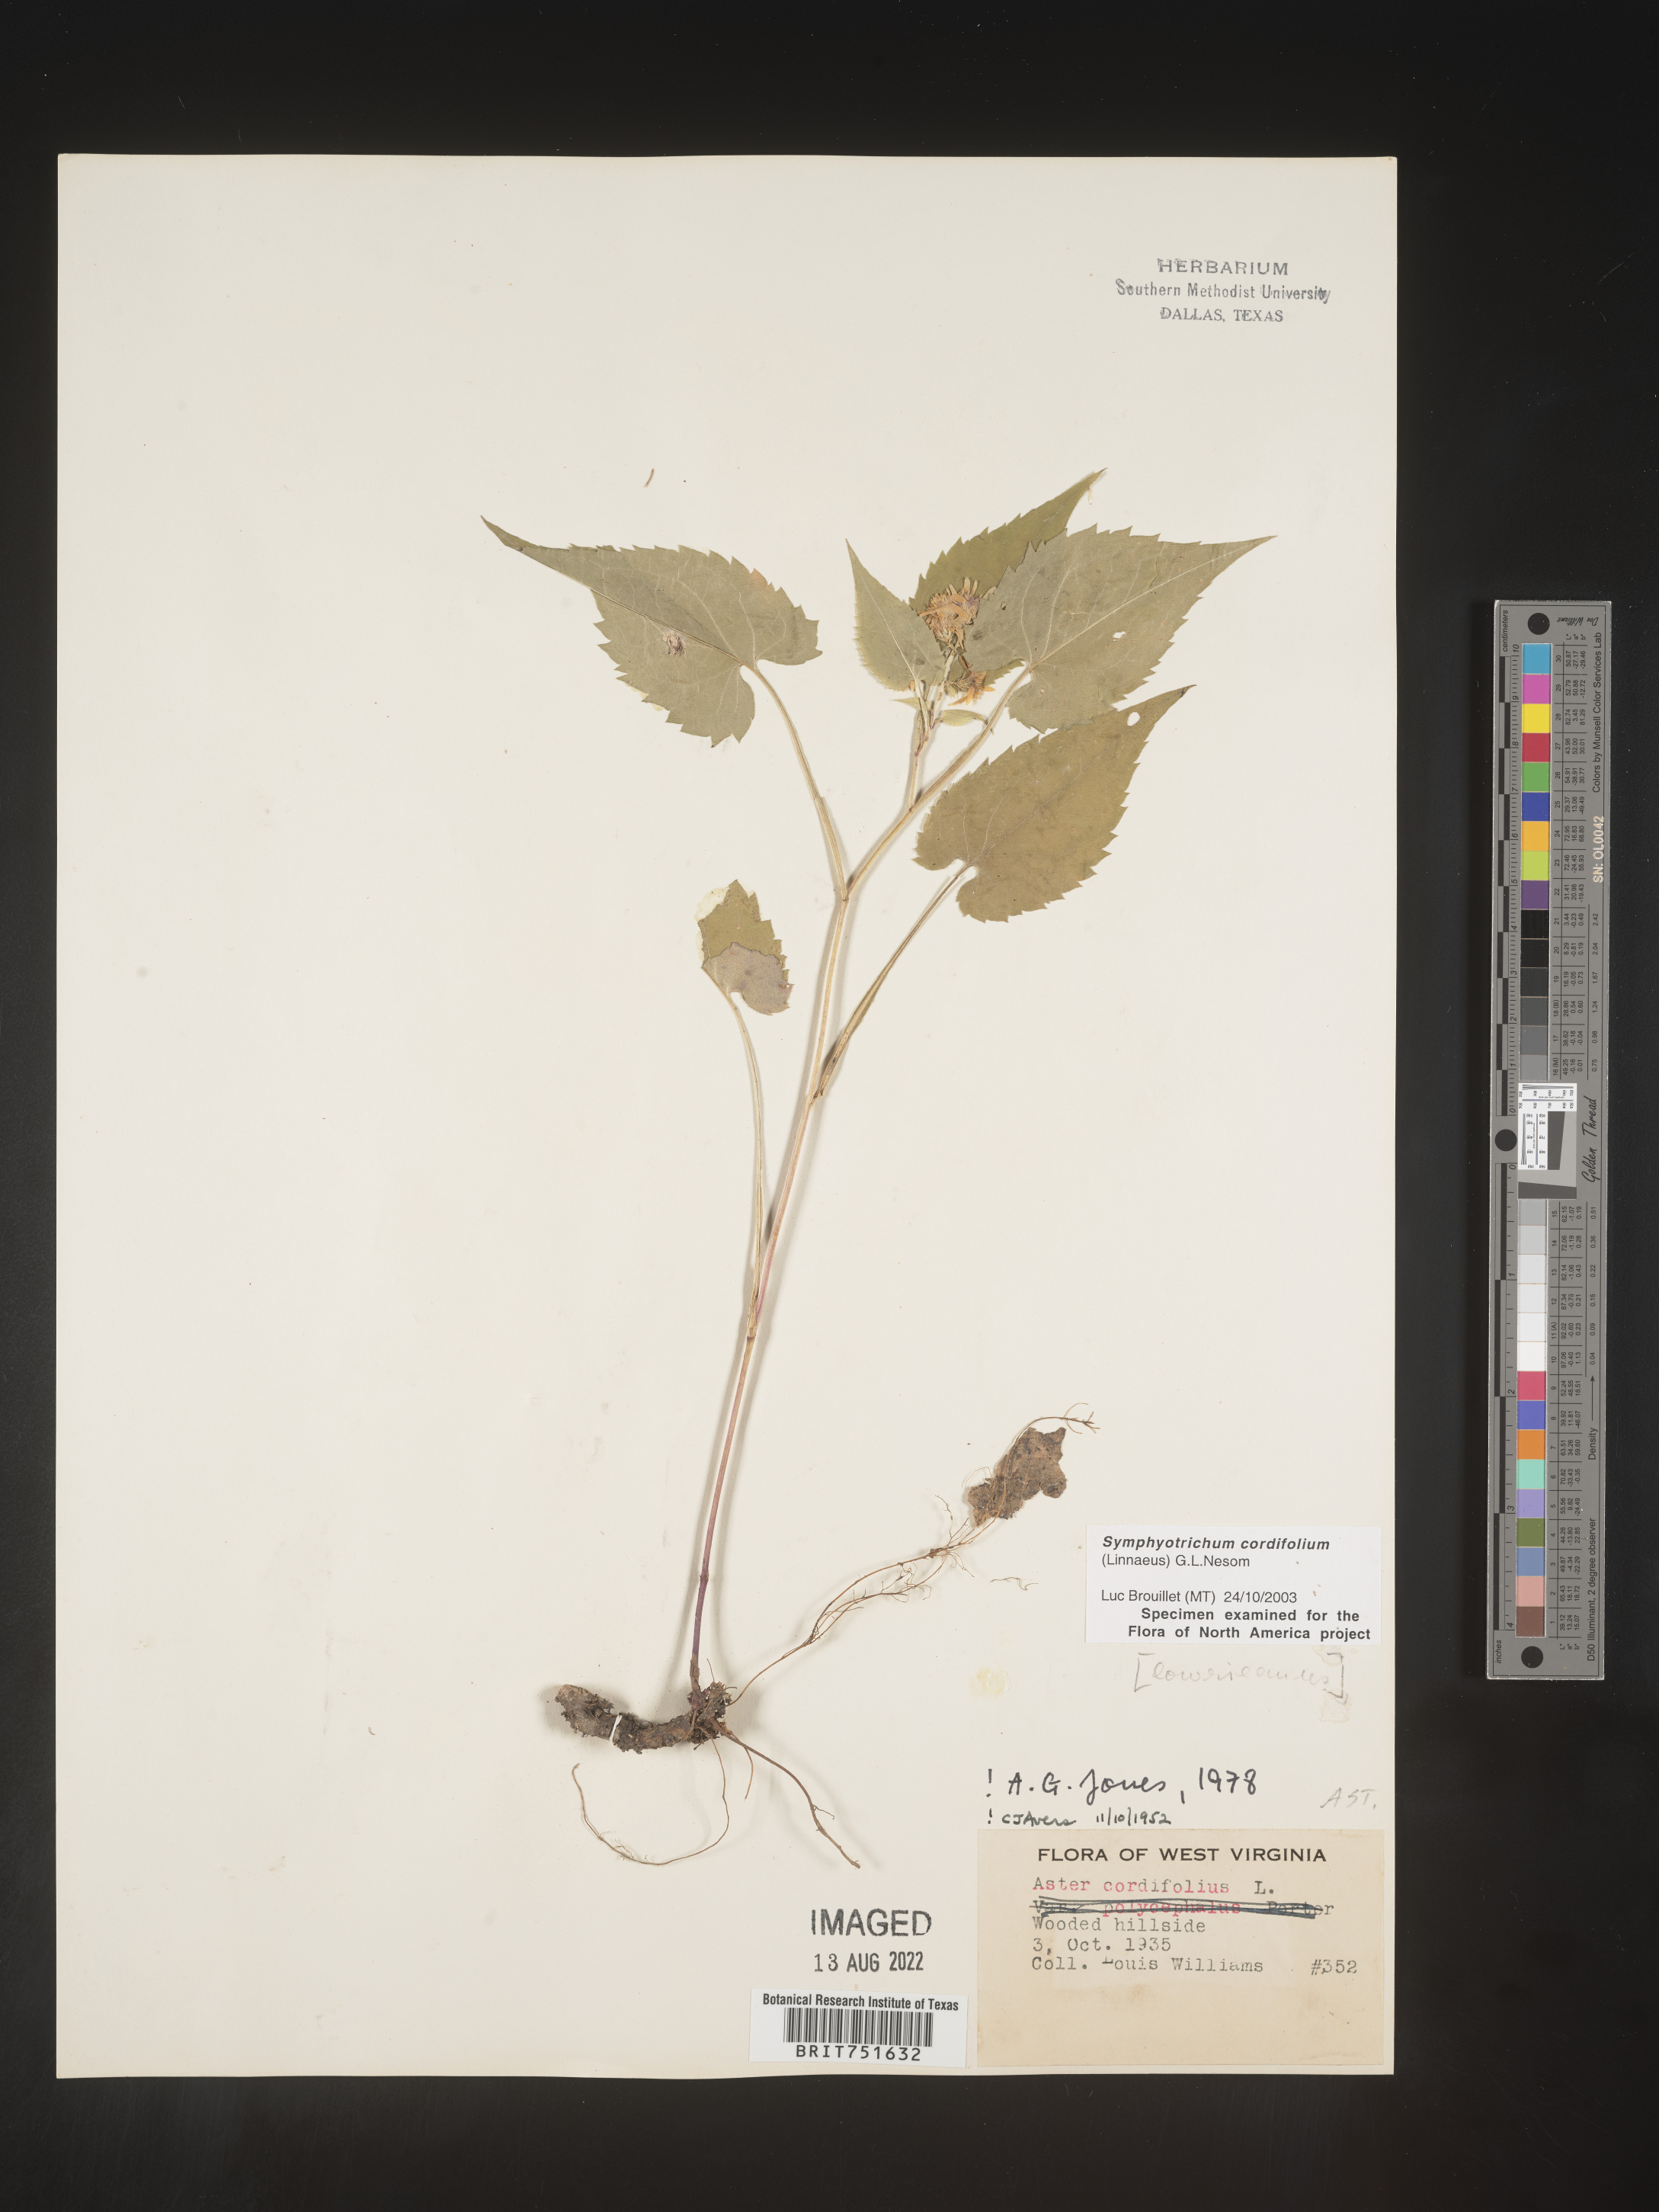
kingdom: Plantae
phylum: Tracheophyta
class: Magnoliopsida
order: Asterales
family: Asteraceae
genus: Symphyotrichum
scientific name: Symphyotrichum cordifolium
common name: Beeweed
